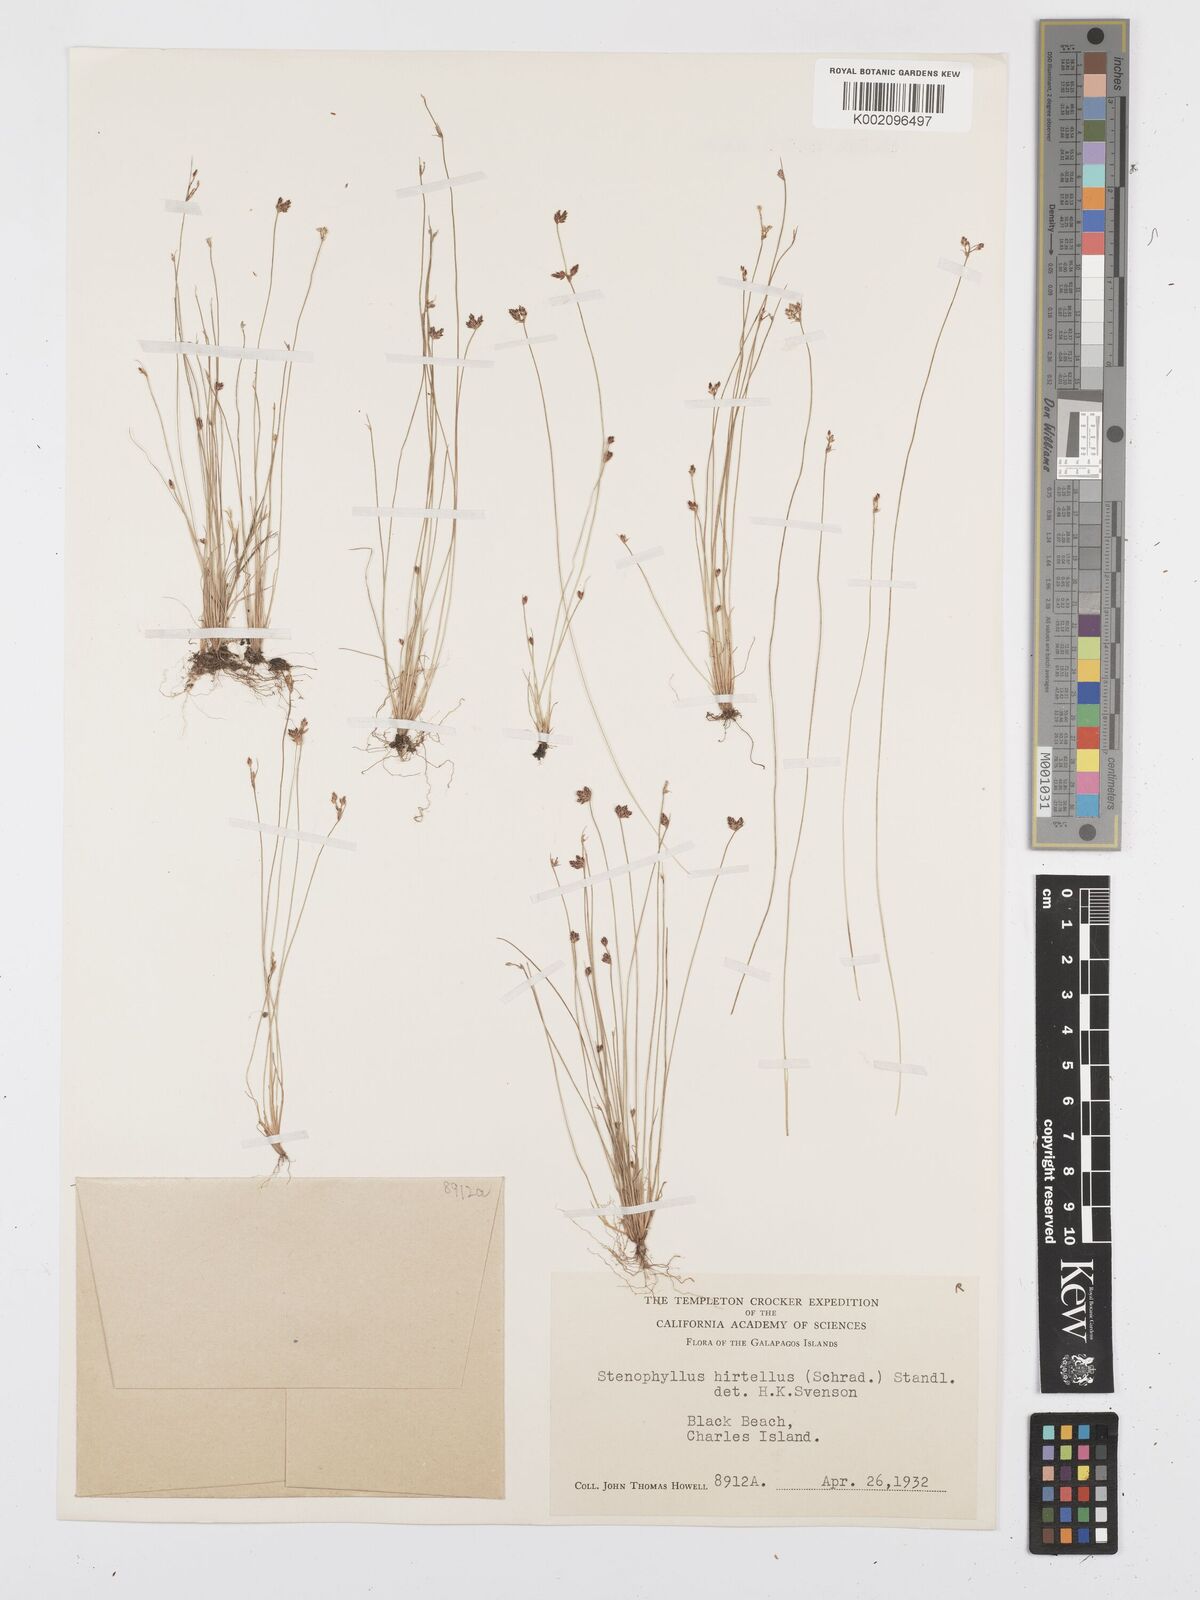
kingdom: Plantae
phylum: Tracheophyta
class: Liliopsida
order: Poales
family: Cyperaceae
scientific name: Cyperaceae
